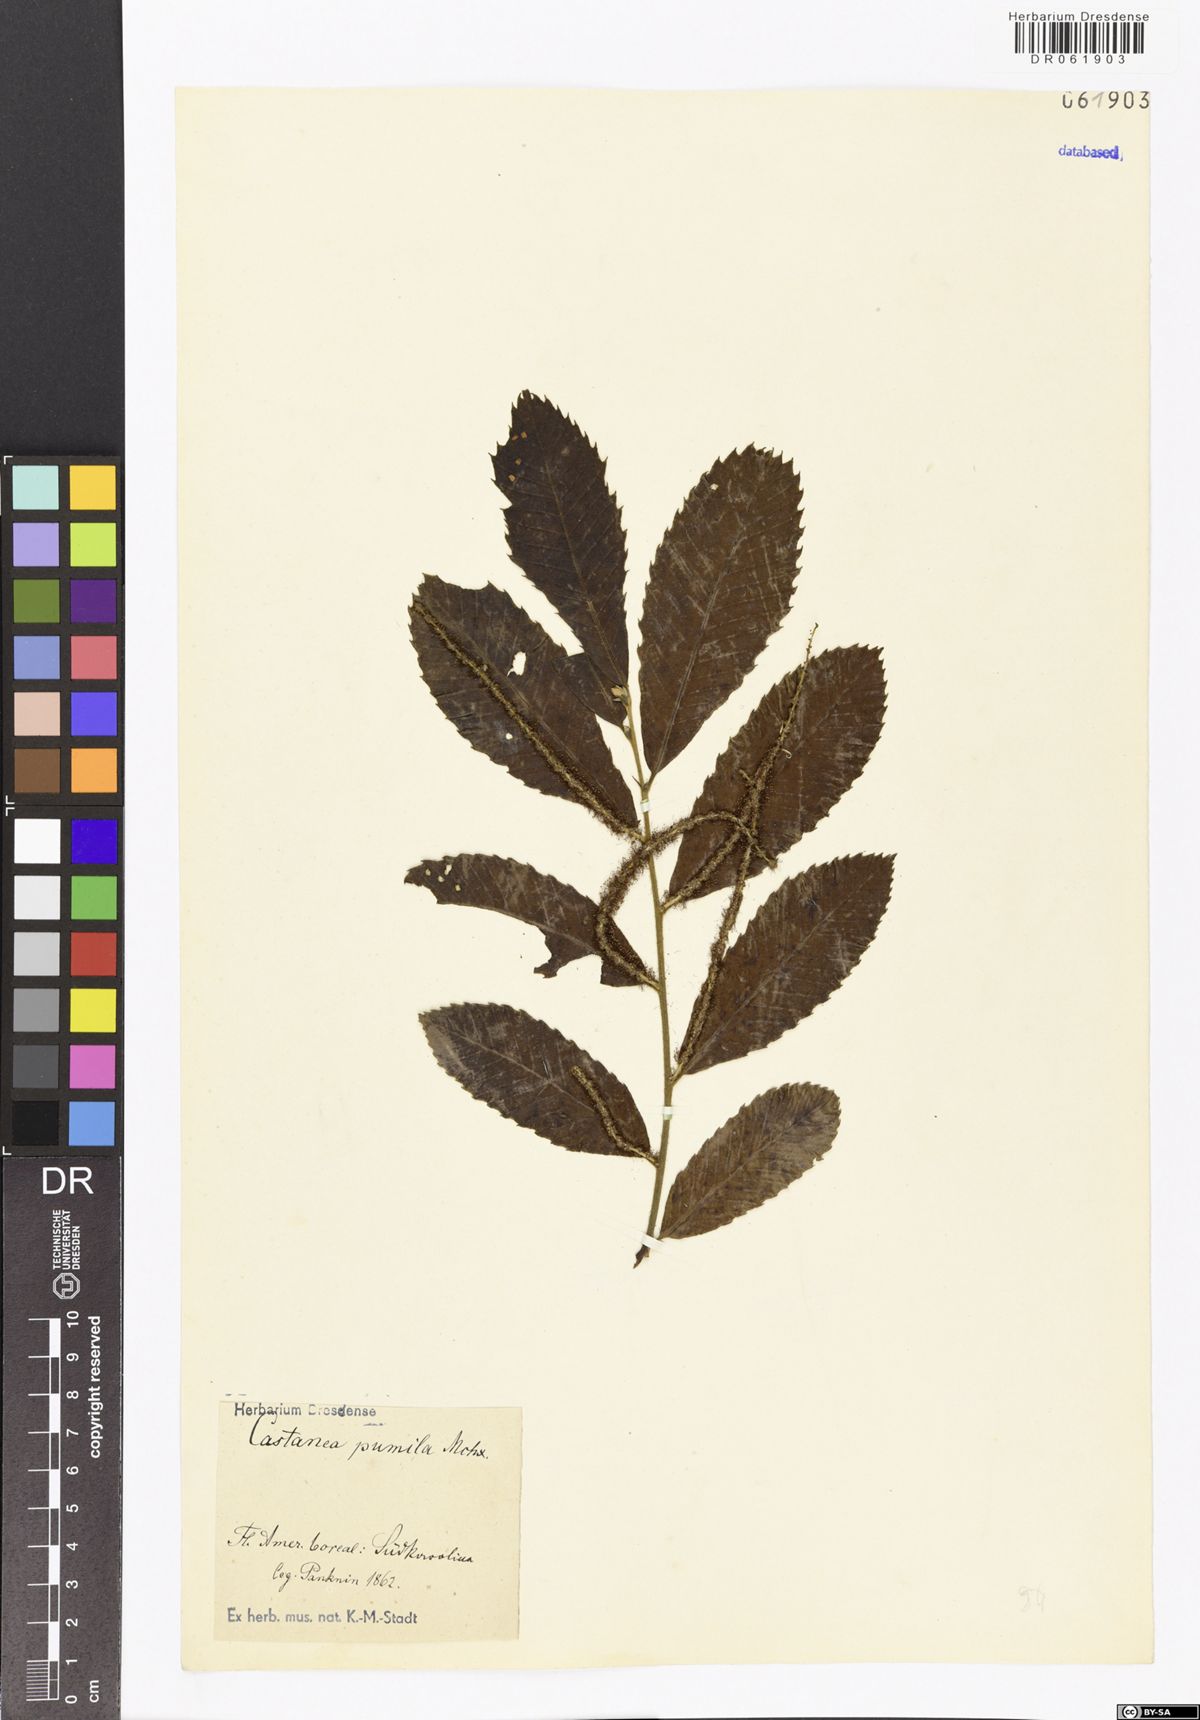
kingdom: Plantae
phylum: Tracheophyta
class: Magnoliopsida
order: Fagales
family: Fagaceae
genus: Castanea
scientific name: Castanea pumila
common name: Chinkapin
